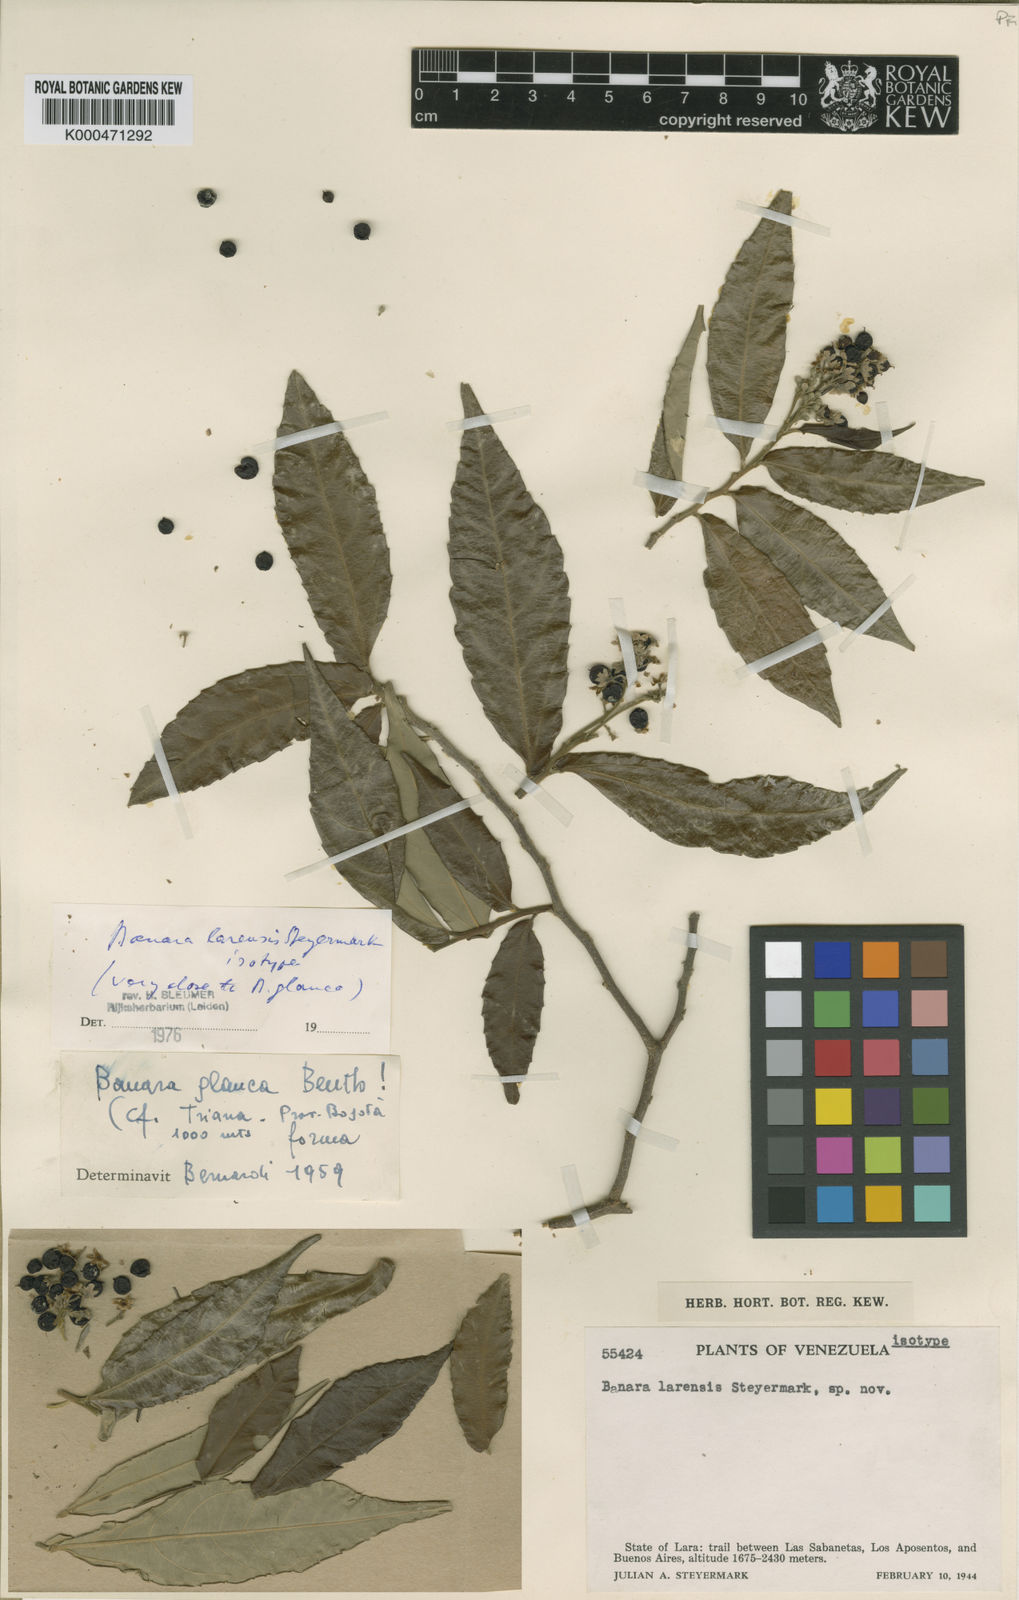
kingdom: Plantae
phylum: Tracheophyta
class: Magnoliopsida
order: Malpighiales
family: Salicaceae
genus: Banara
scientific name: Banara larensis
